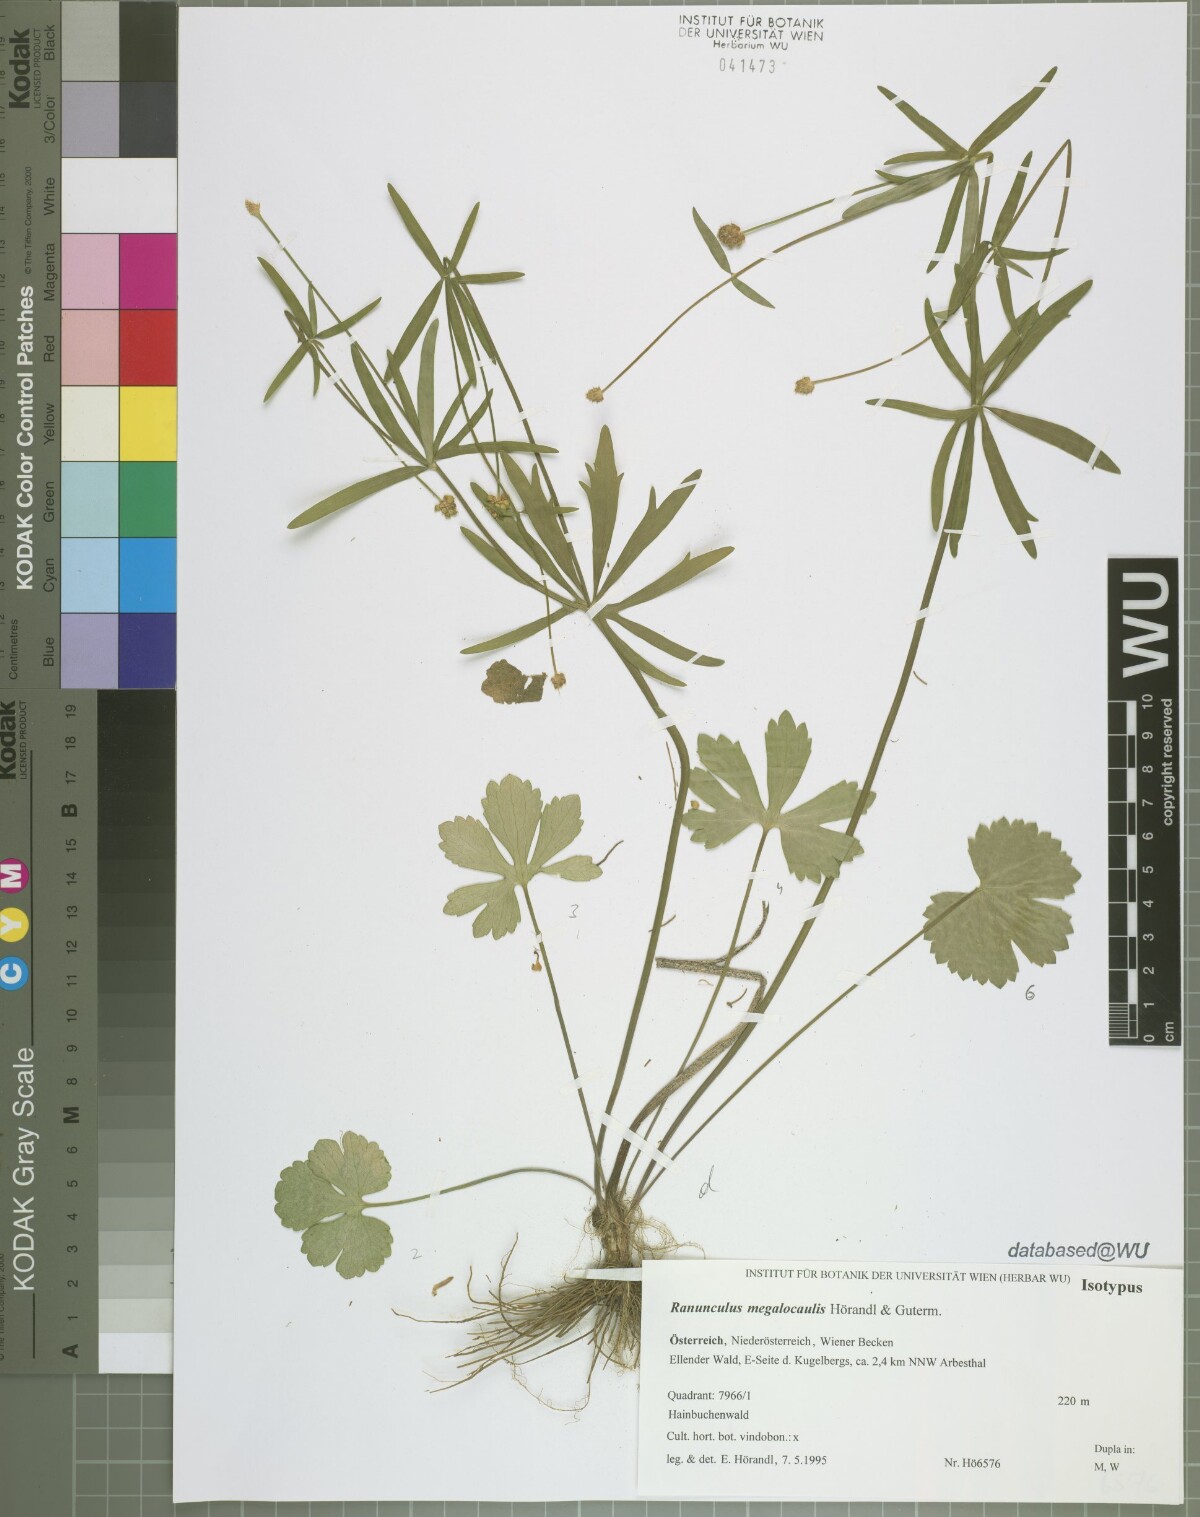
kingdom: Plantae
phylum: Tracheophyta
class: Magnoliopsida
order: Ranunculales
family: Ranunculaceae
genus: Ranunculus
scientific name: Ranunculus megalocaulis
